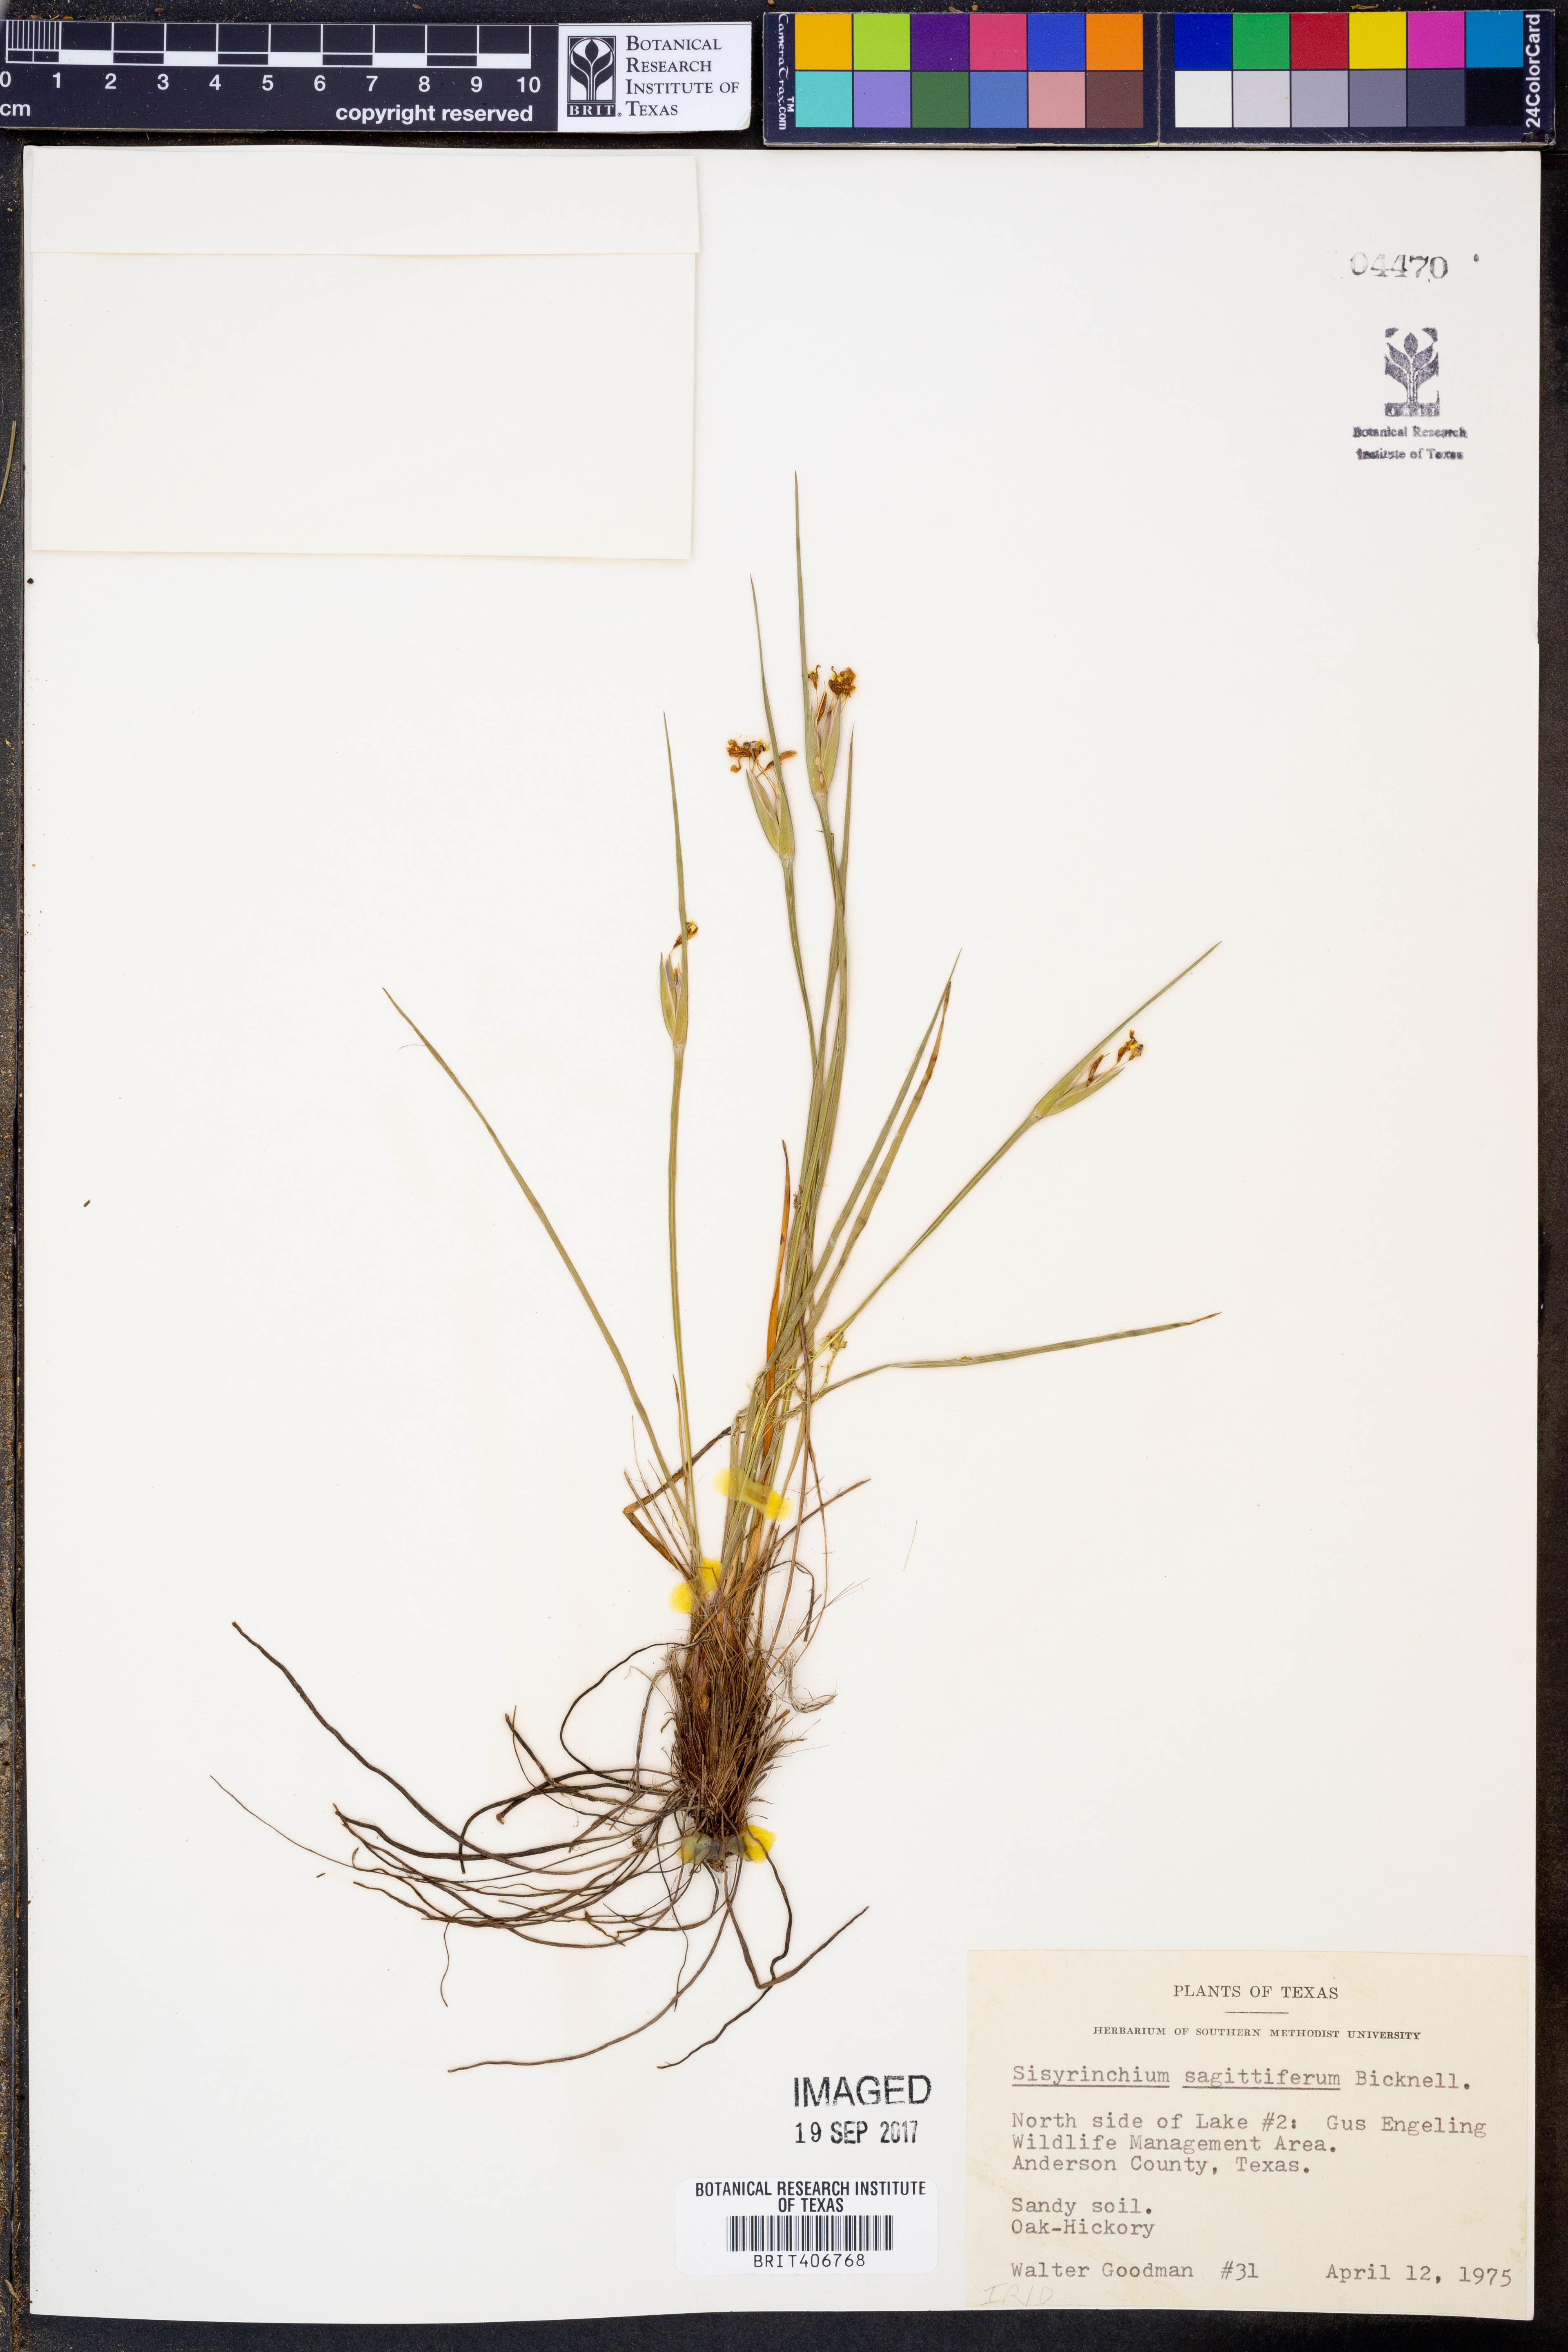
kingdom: Plantae
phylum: Tracheophyta
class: Liliopsida
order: Asparagales
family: Iridaceae
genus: Sisyrinchium
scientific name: Sisyrinchium sagittiferum
